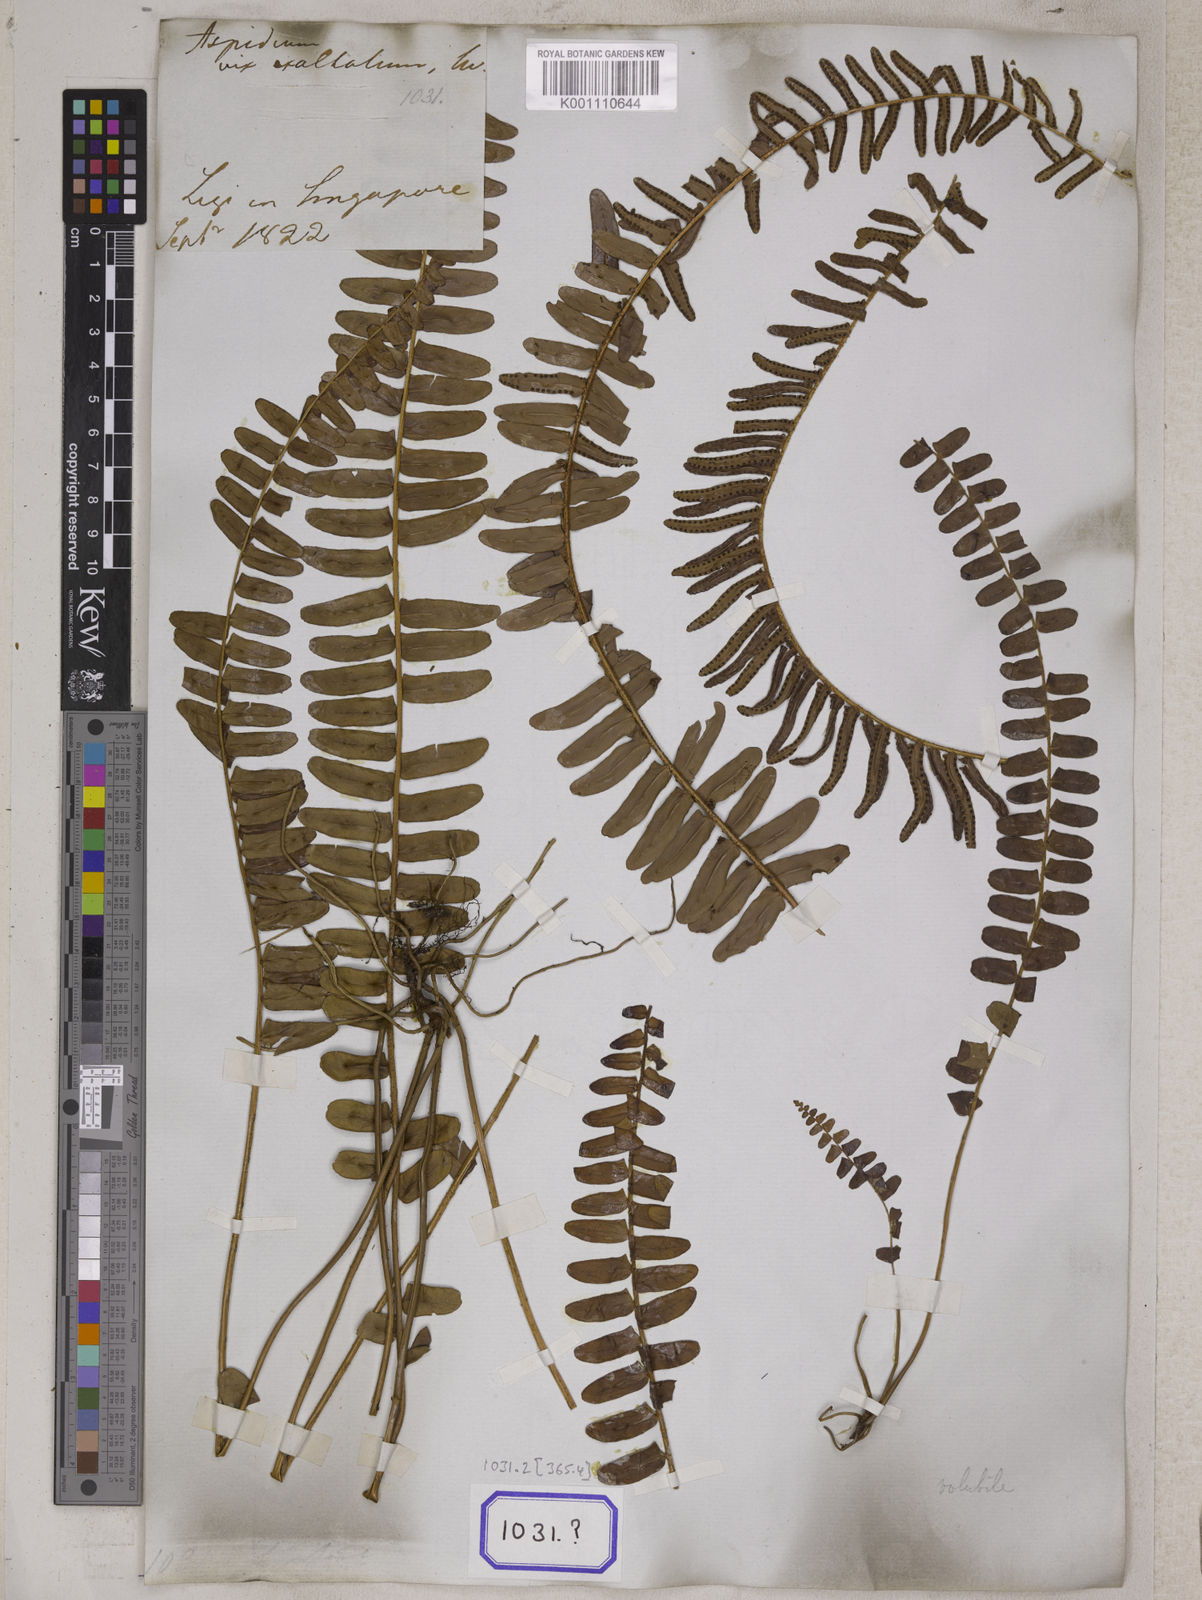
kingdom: Plantae
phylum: Tracheophyta
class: Polypodiopsida
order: Polypodiales
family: Nephrolepidaceae
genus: Nephrolepis
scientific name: Nephrolepis exaltata
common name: Sword fern
